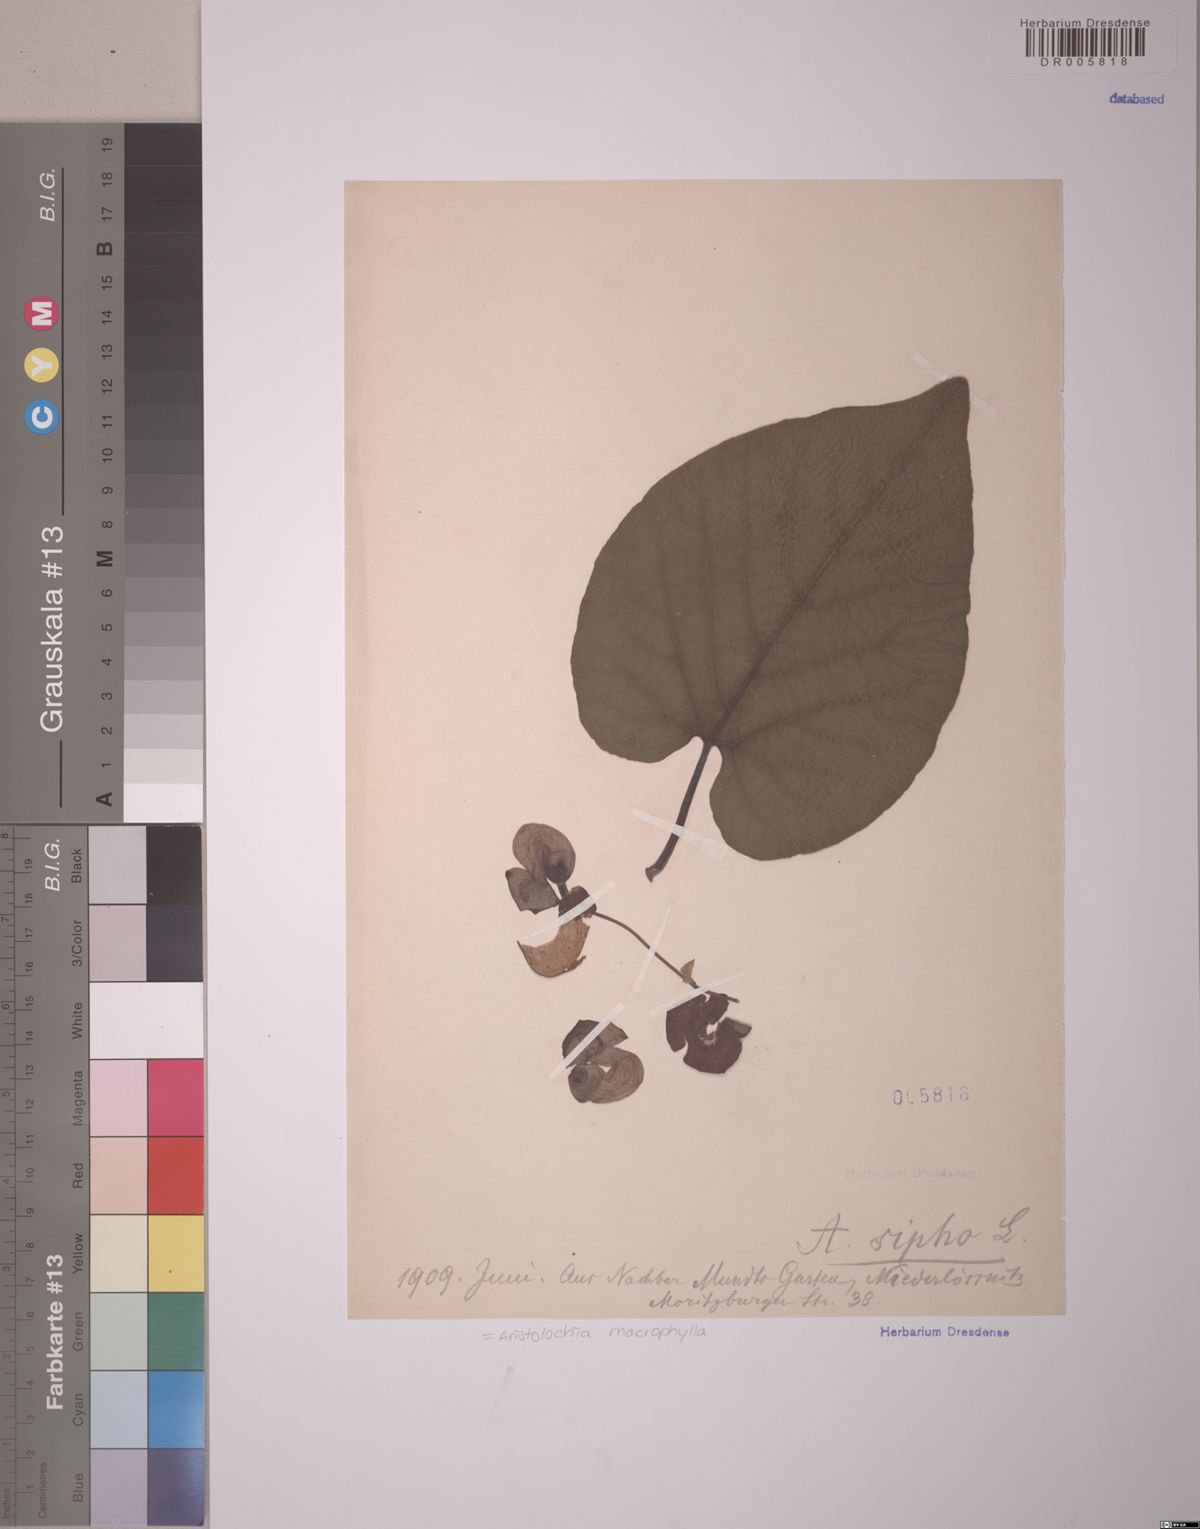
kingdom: Plantae
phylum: Tracheophyta
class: Magnoliopsida
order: Piperales
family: Aristolochiaceae
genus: Isotrema
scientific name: Isotrema macrophyllum
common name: Dutchman's-pipe
